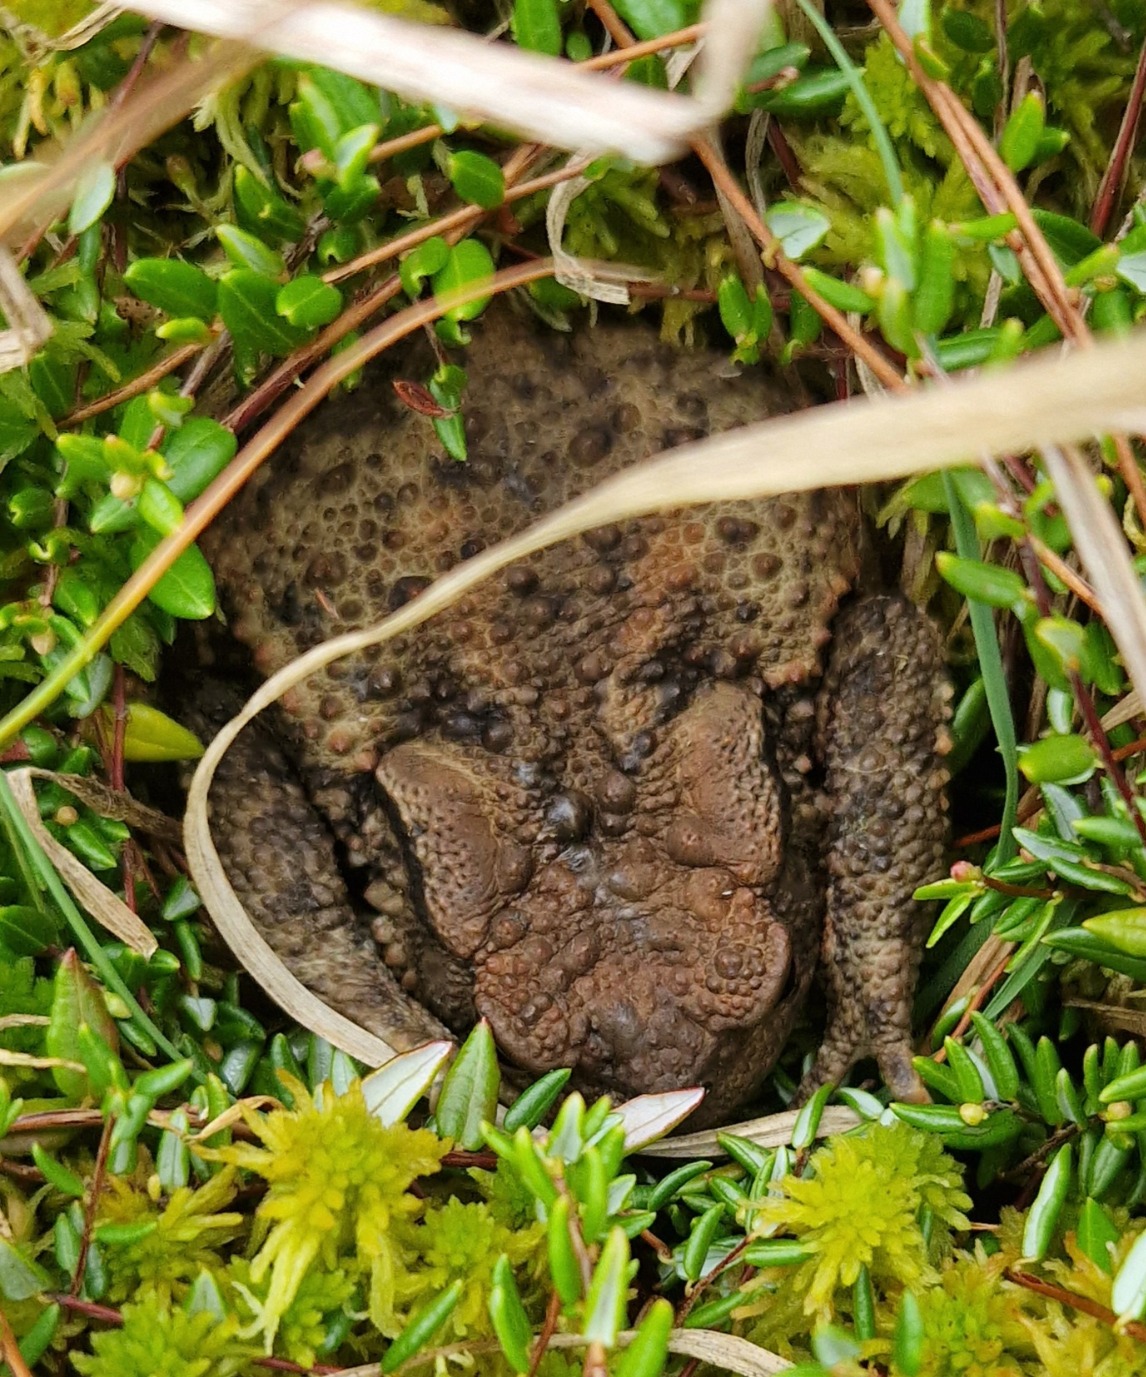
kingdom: Animalia
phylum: Chordata
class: Amphibia
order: Anura
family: Bufonidae
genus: Bufo
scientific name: Bufo bufo
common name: Skrubtudse
